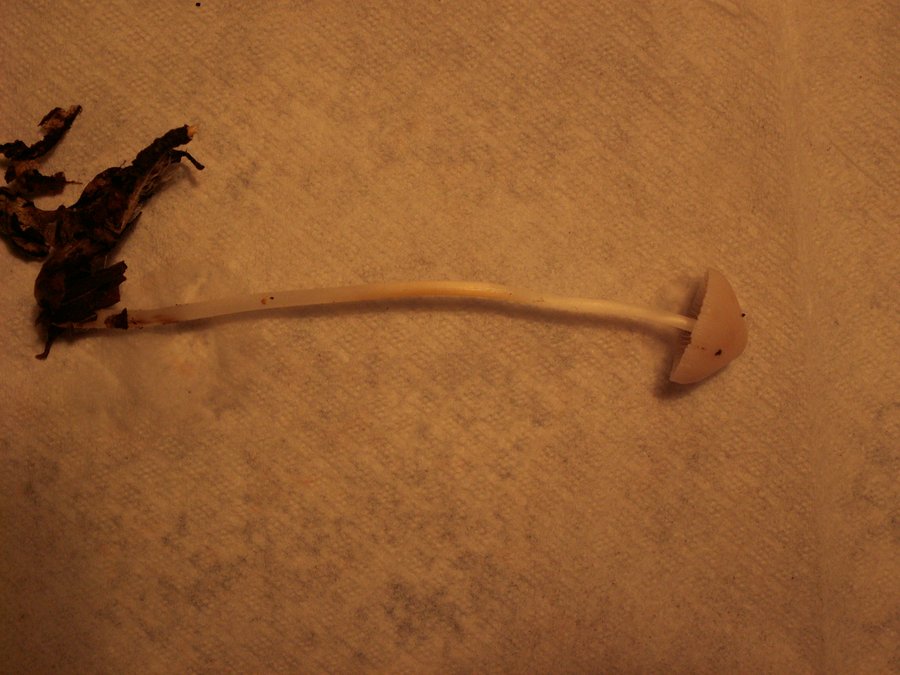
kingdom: Fungi
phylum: Basidiomycota
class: Agaricomycetes
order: Agaricales
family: Mycenaceae
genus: Mycena
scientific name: Mycena vitilis
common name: blankstokket huesvamp
